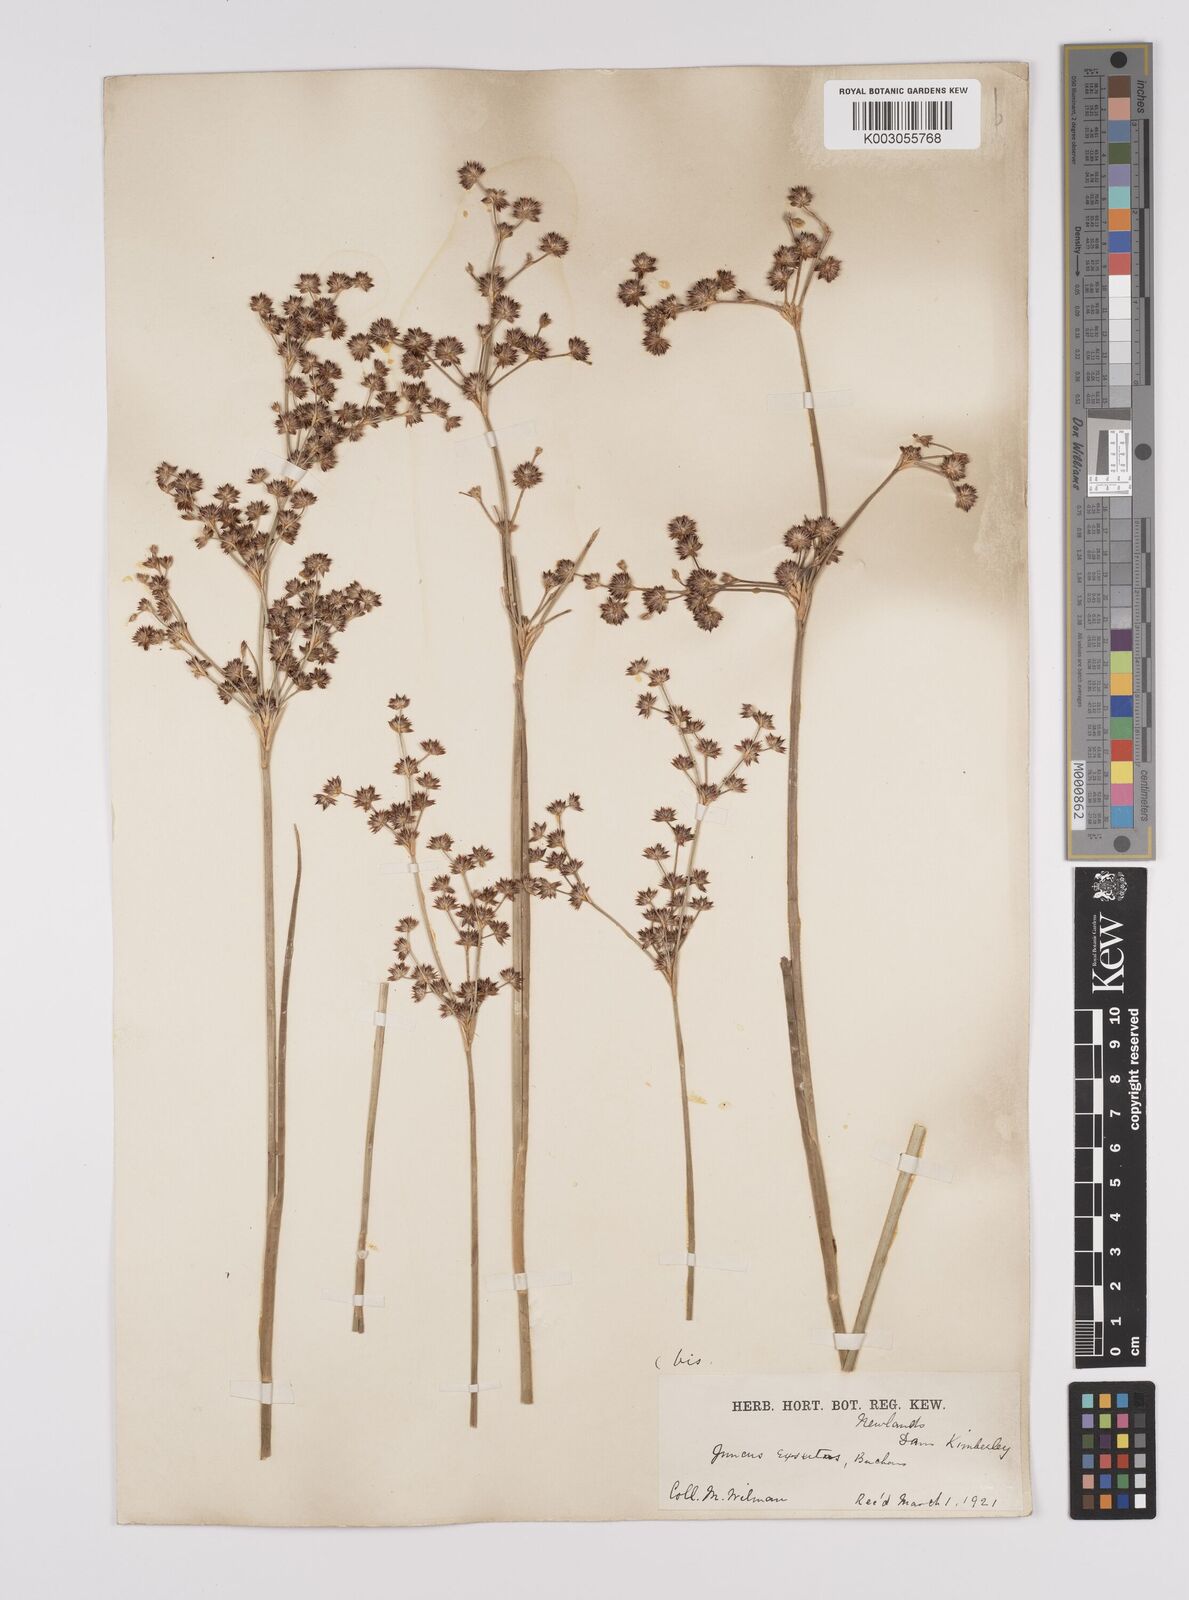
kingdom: Plantae
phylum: Tracheophyta
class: Liliopsida
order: Poales
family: Juncaceae
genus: Juncus
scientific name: Juncus exsertus
